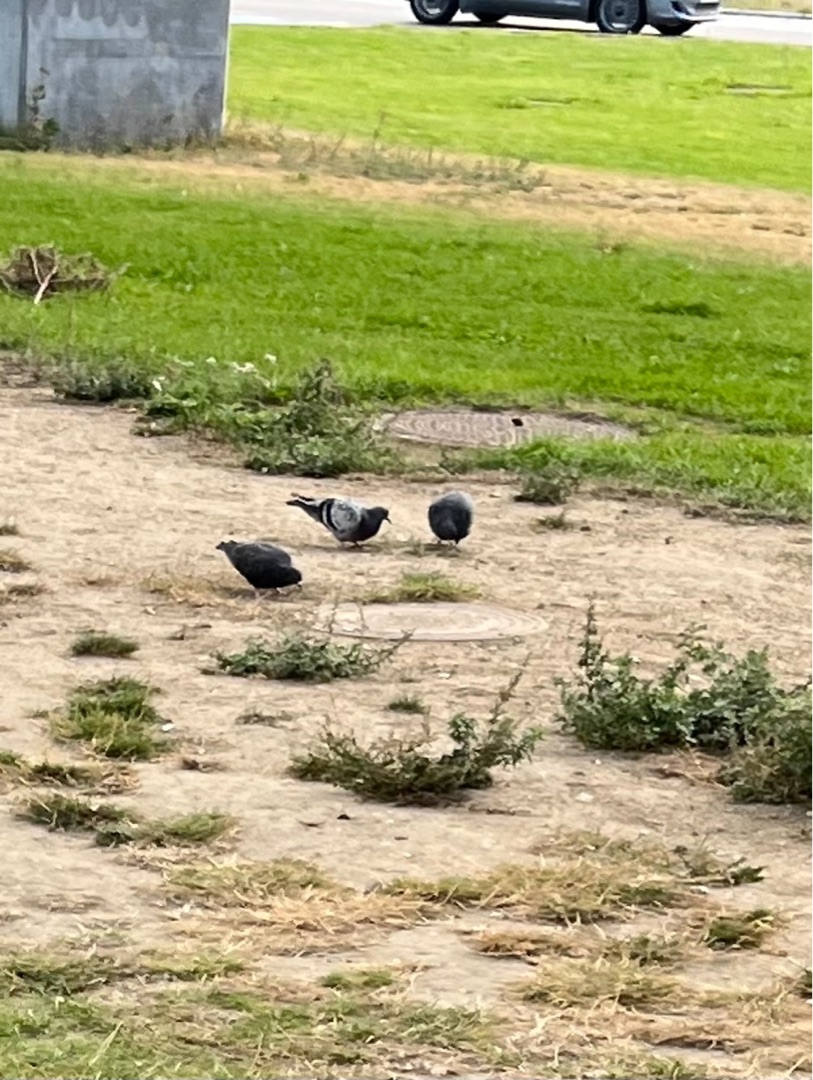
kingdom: Animalia
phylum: Chordata
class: Aves
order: Columbiformes
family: Columbidae
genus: Columba
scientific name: Columba livia
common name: Klippedue
